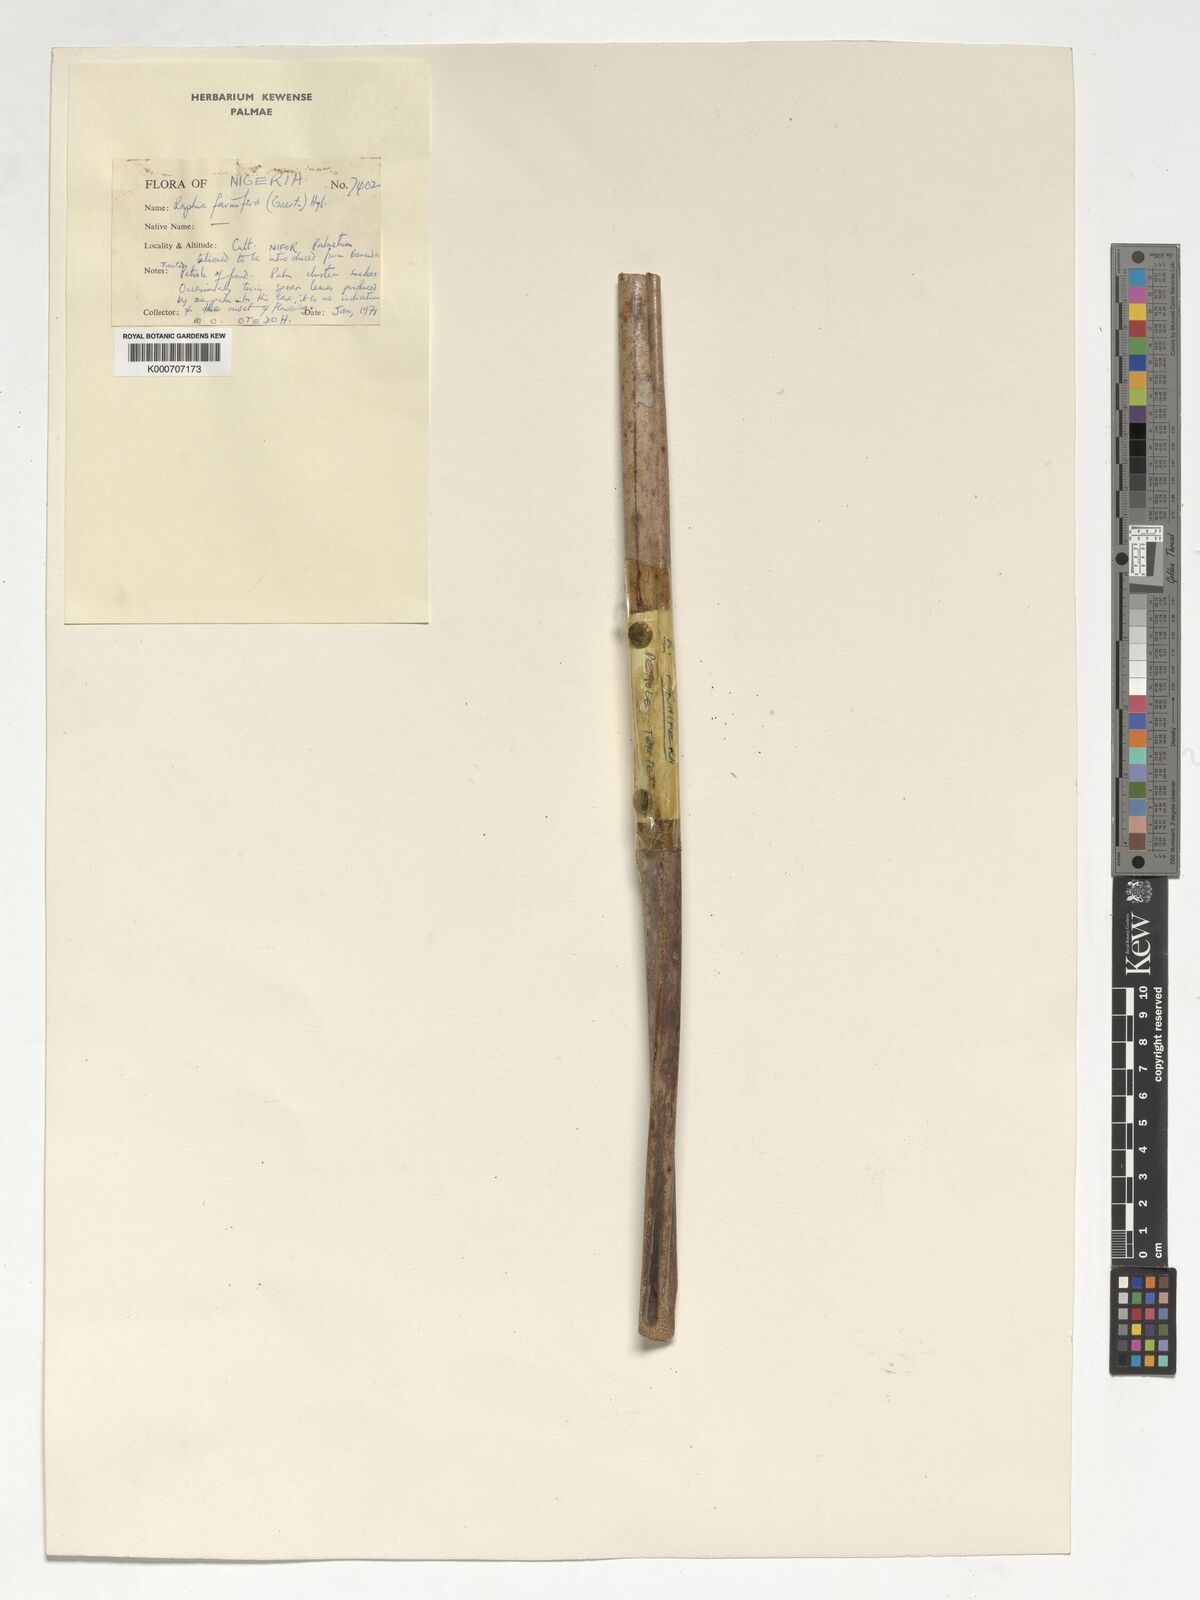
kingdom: Plantae
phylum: Tracheophyta
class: Liliopsida
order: Arecales
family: Arecaceae
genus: Raphia
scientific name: Raphia farinifera
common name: Raphia palm
